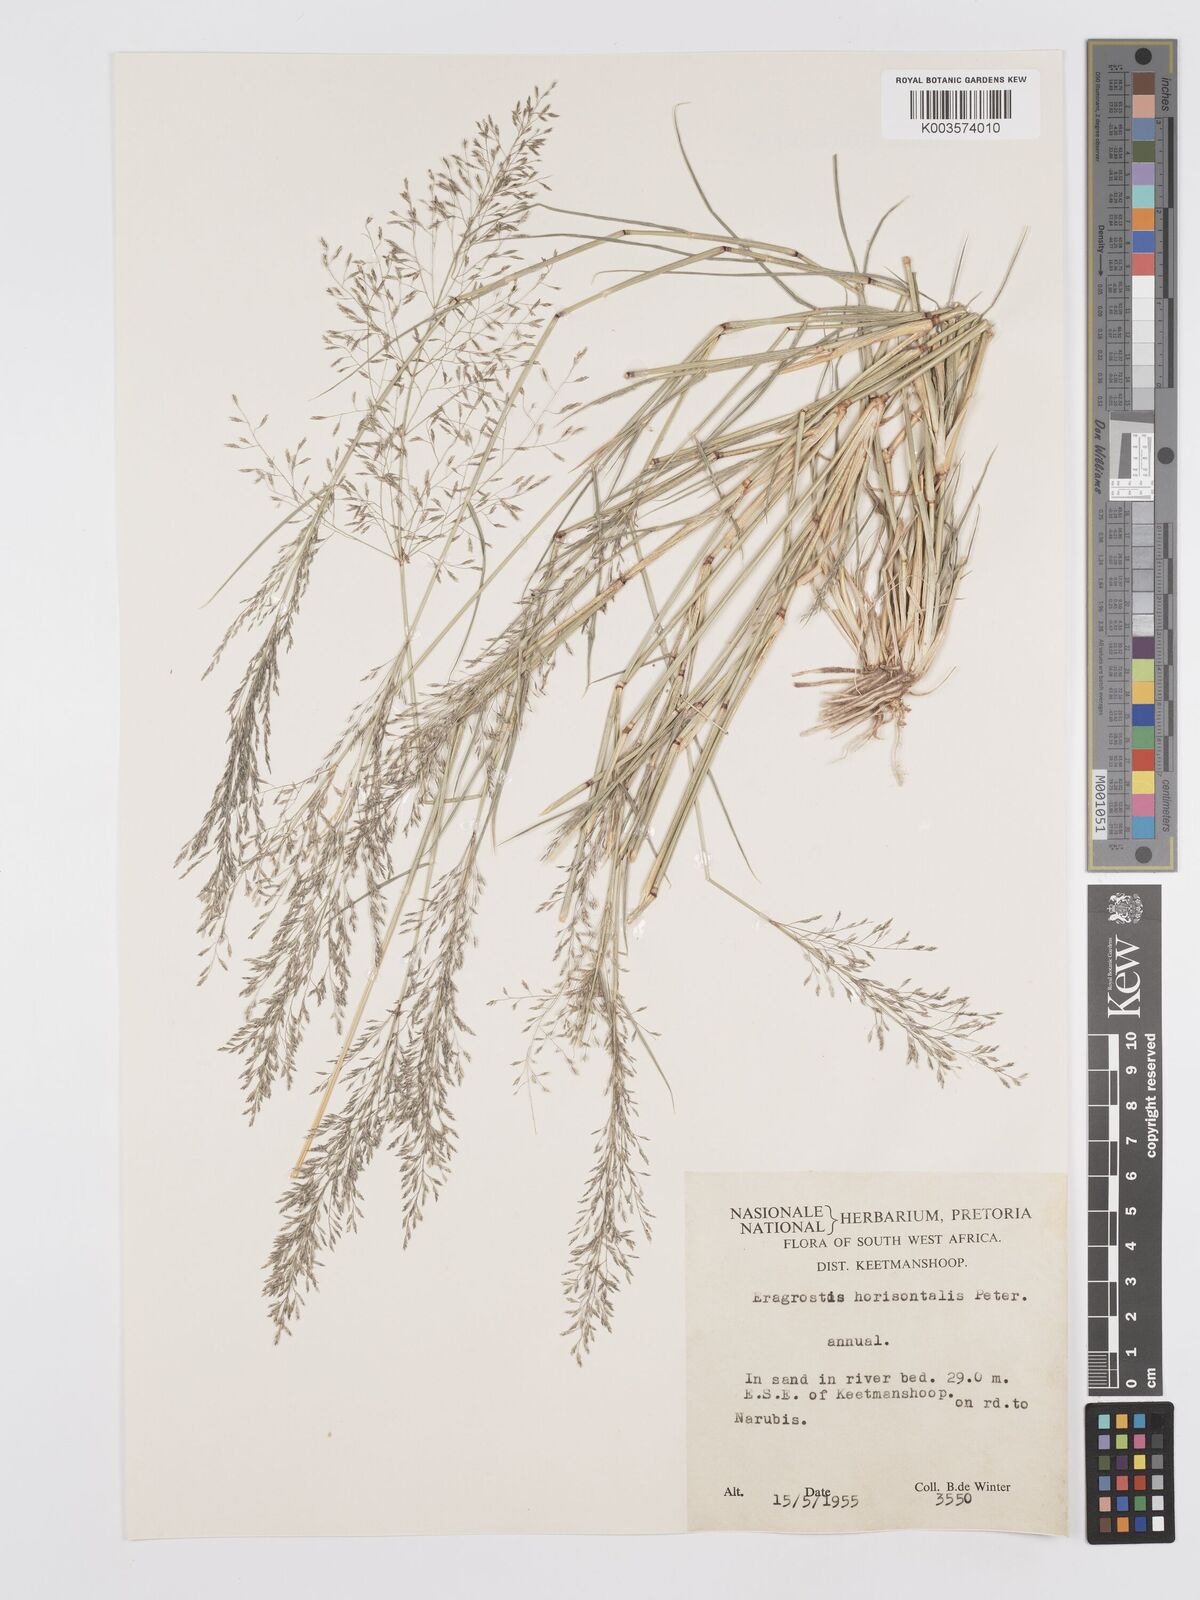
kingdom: Plantae
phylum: Tracheophyta
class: Liliopsida
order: Poales
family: Poaceae
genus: Eragrostis
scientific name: Eragrostis cylindriflora
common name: Cylinderflower lovegrass
